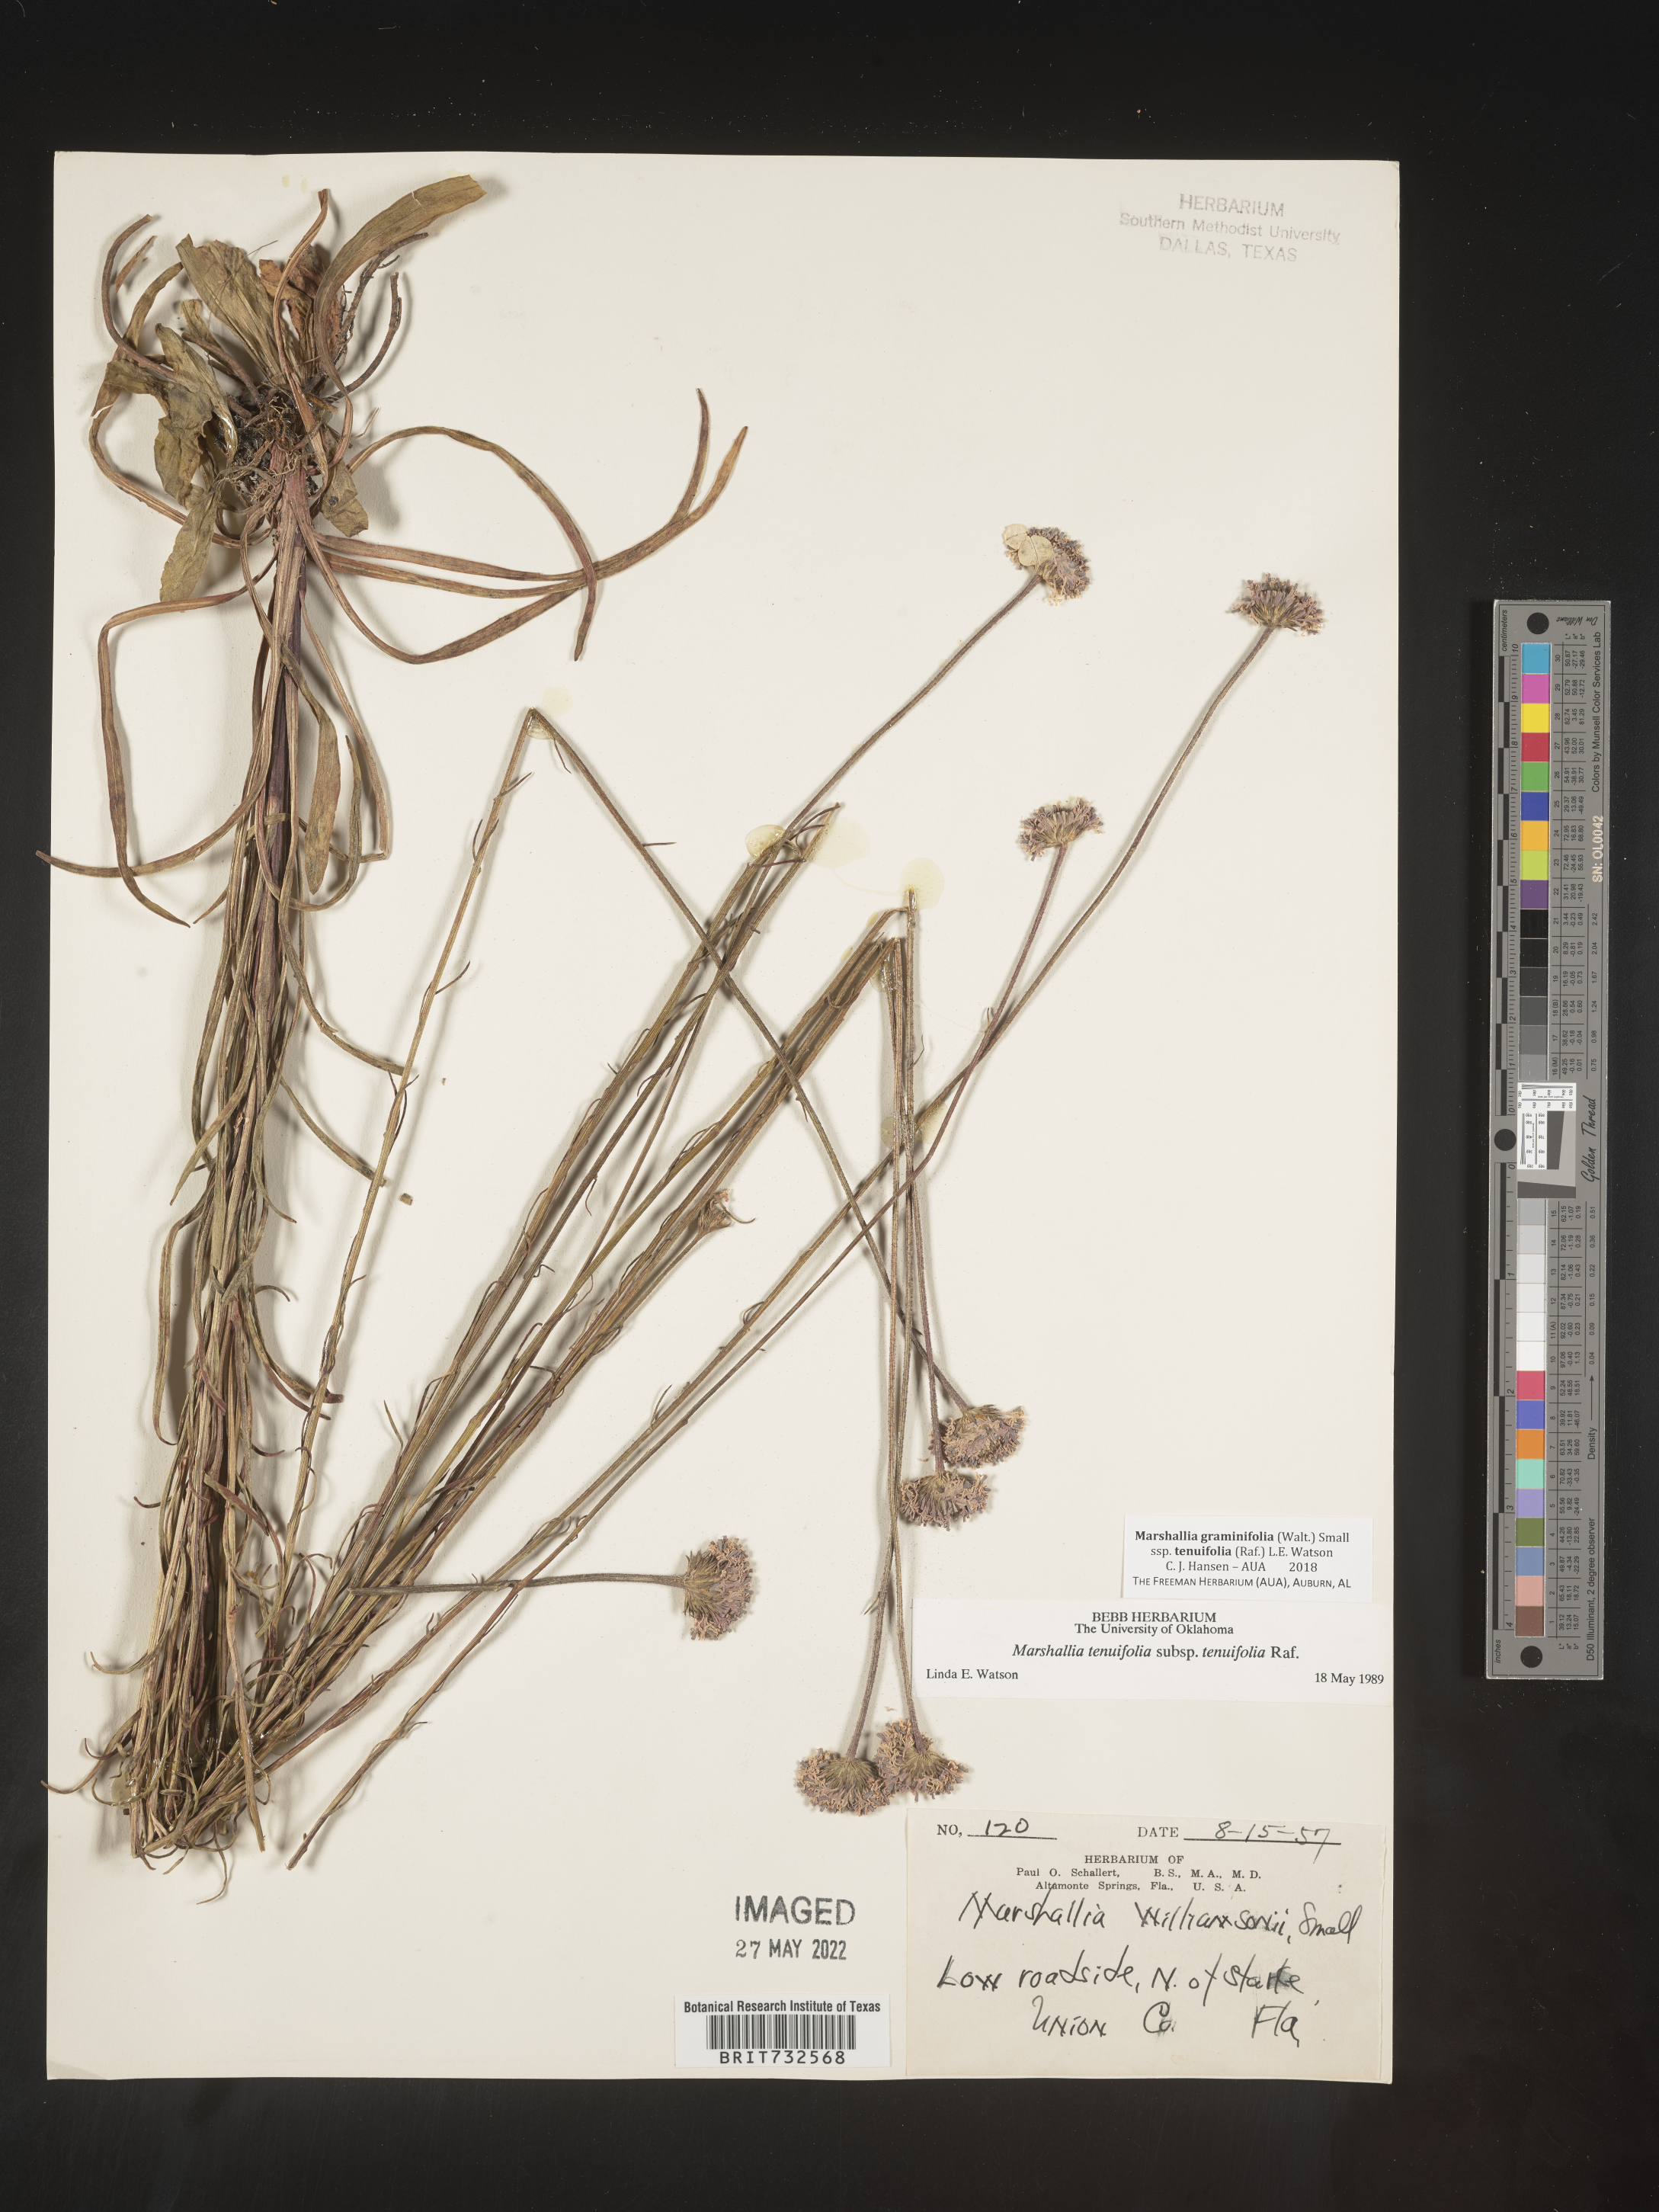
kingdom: Plantae
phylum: Tracheophyta
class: Magnoliopsida
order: Asterales
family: Asteraceae
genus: Marshallia
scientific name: Marshallia graminifolia
